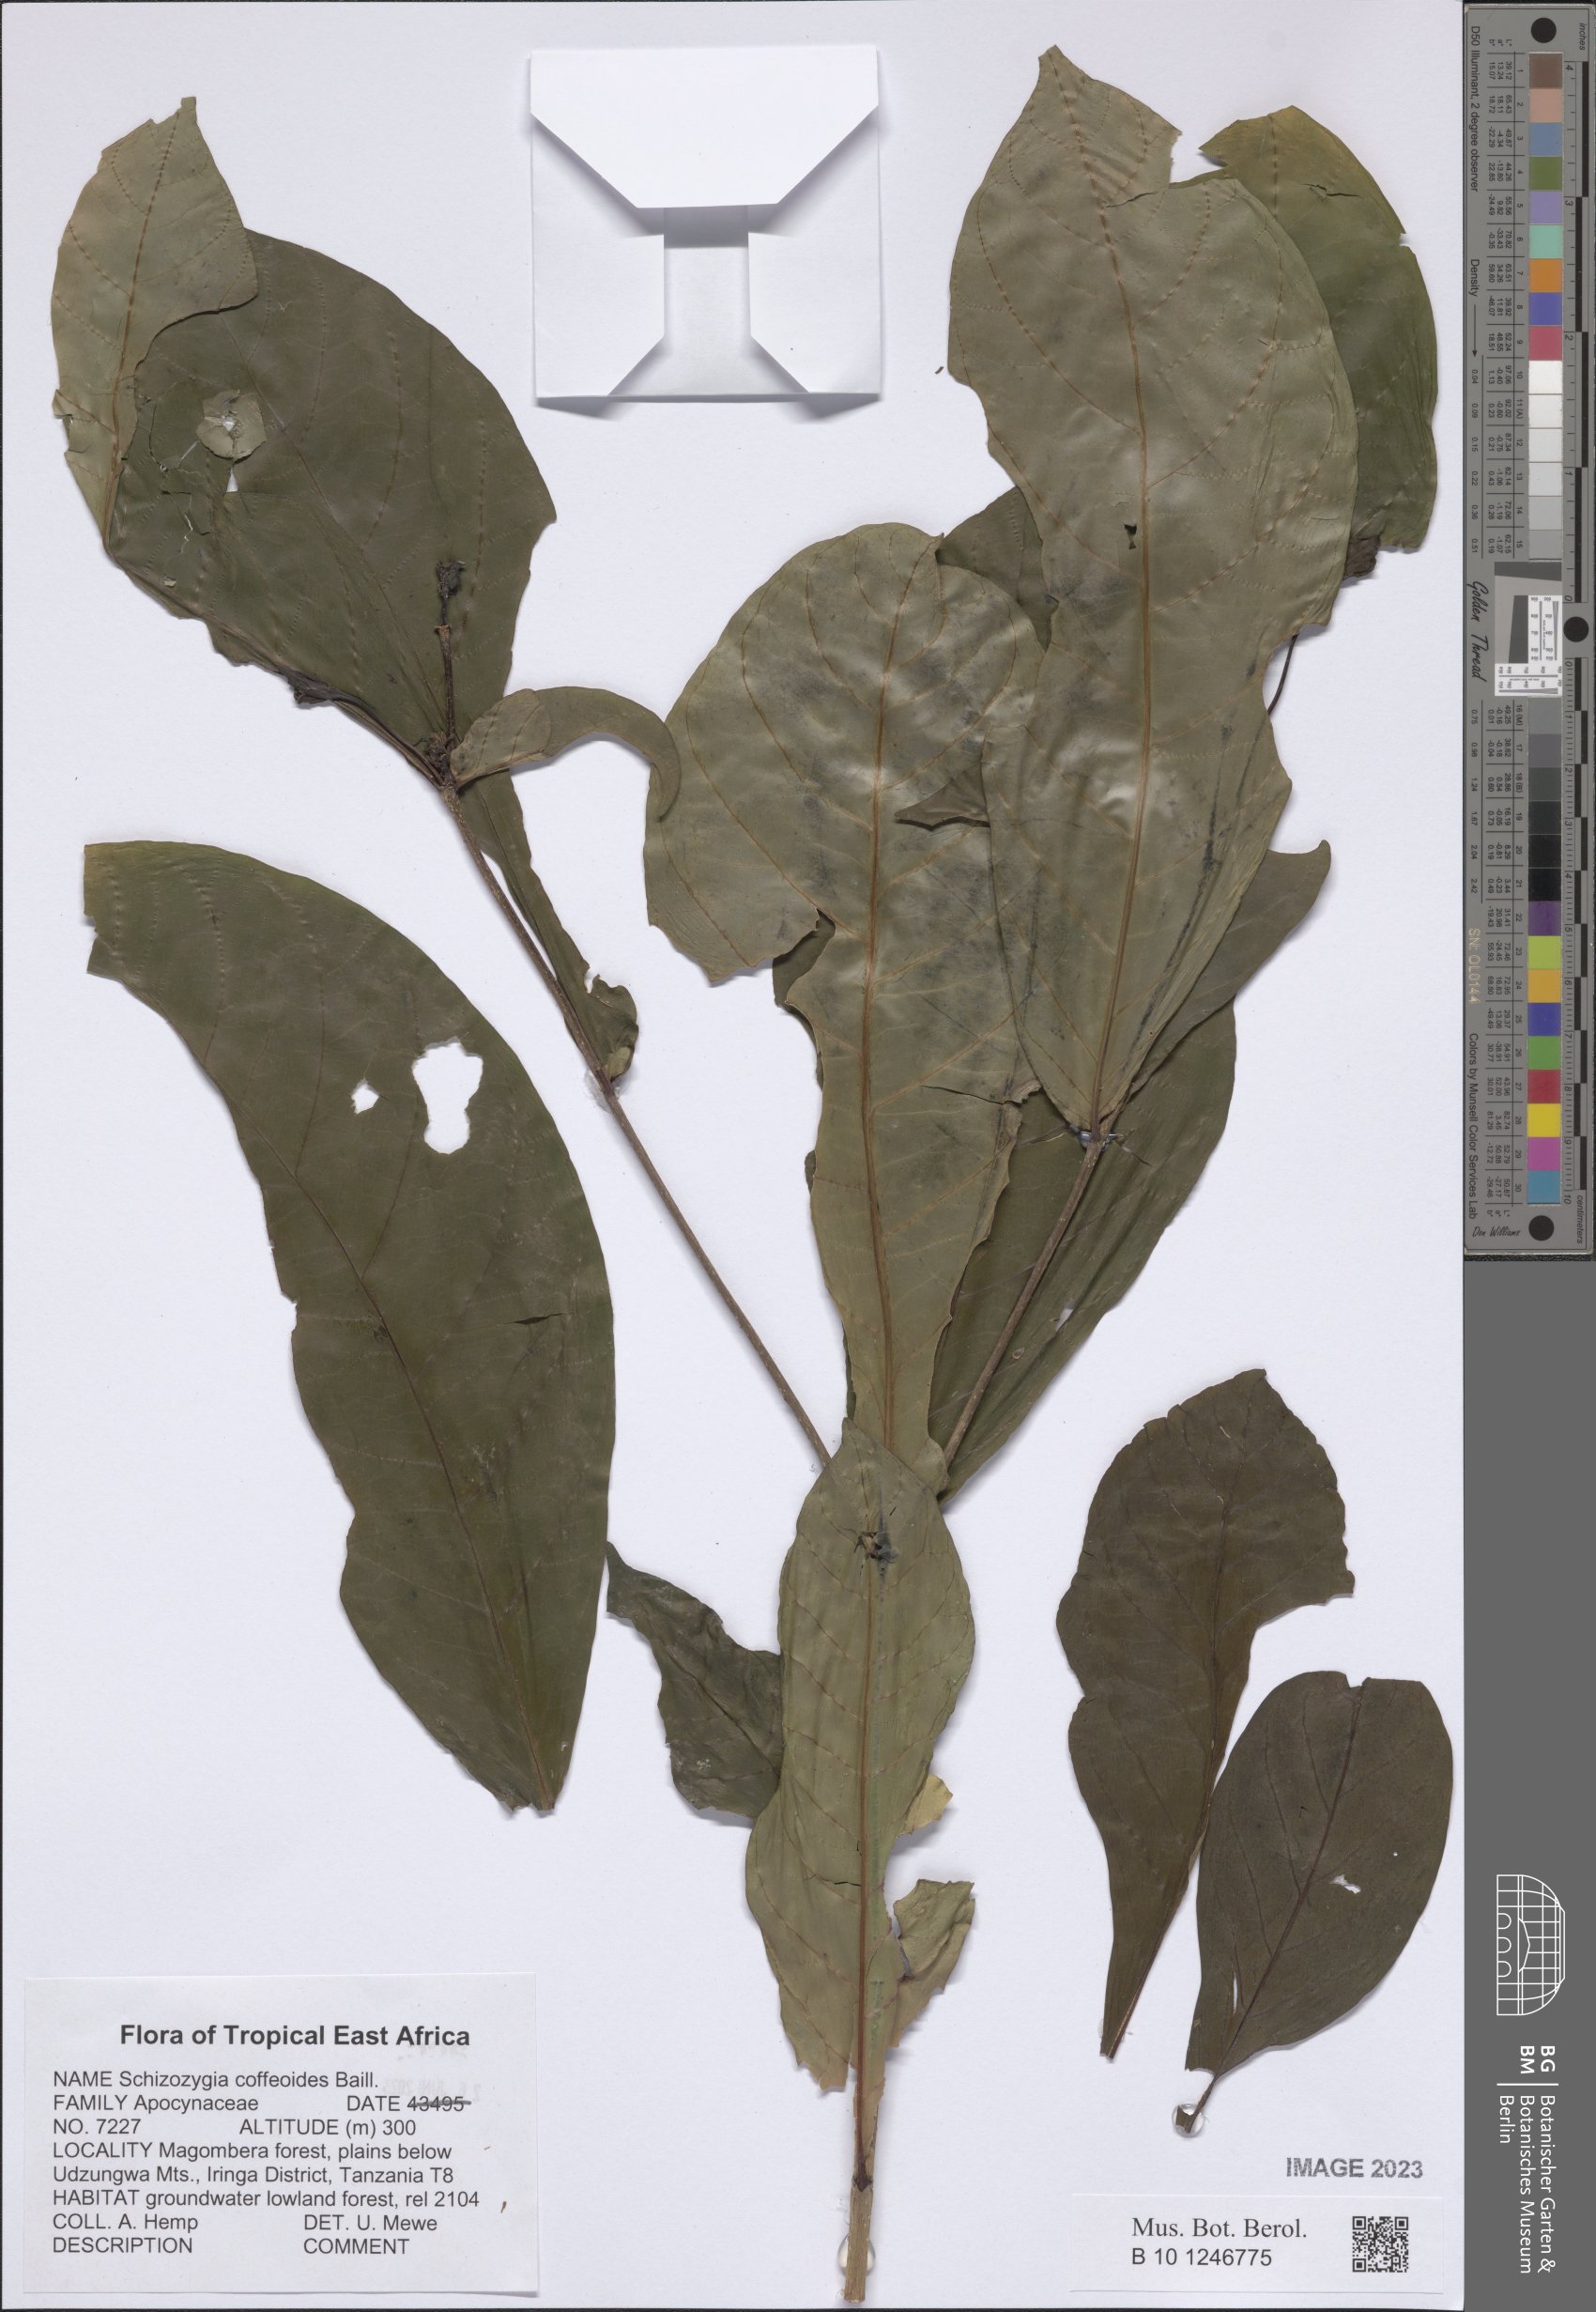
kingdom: Plantae
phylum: Tracheophyta
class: Magnoliopsida
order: Gentianales
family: Apocynaceae
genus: Schizozygia
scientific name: Schizozygia coffaeoides
